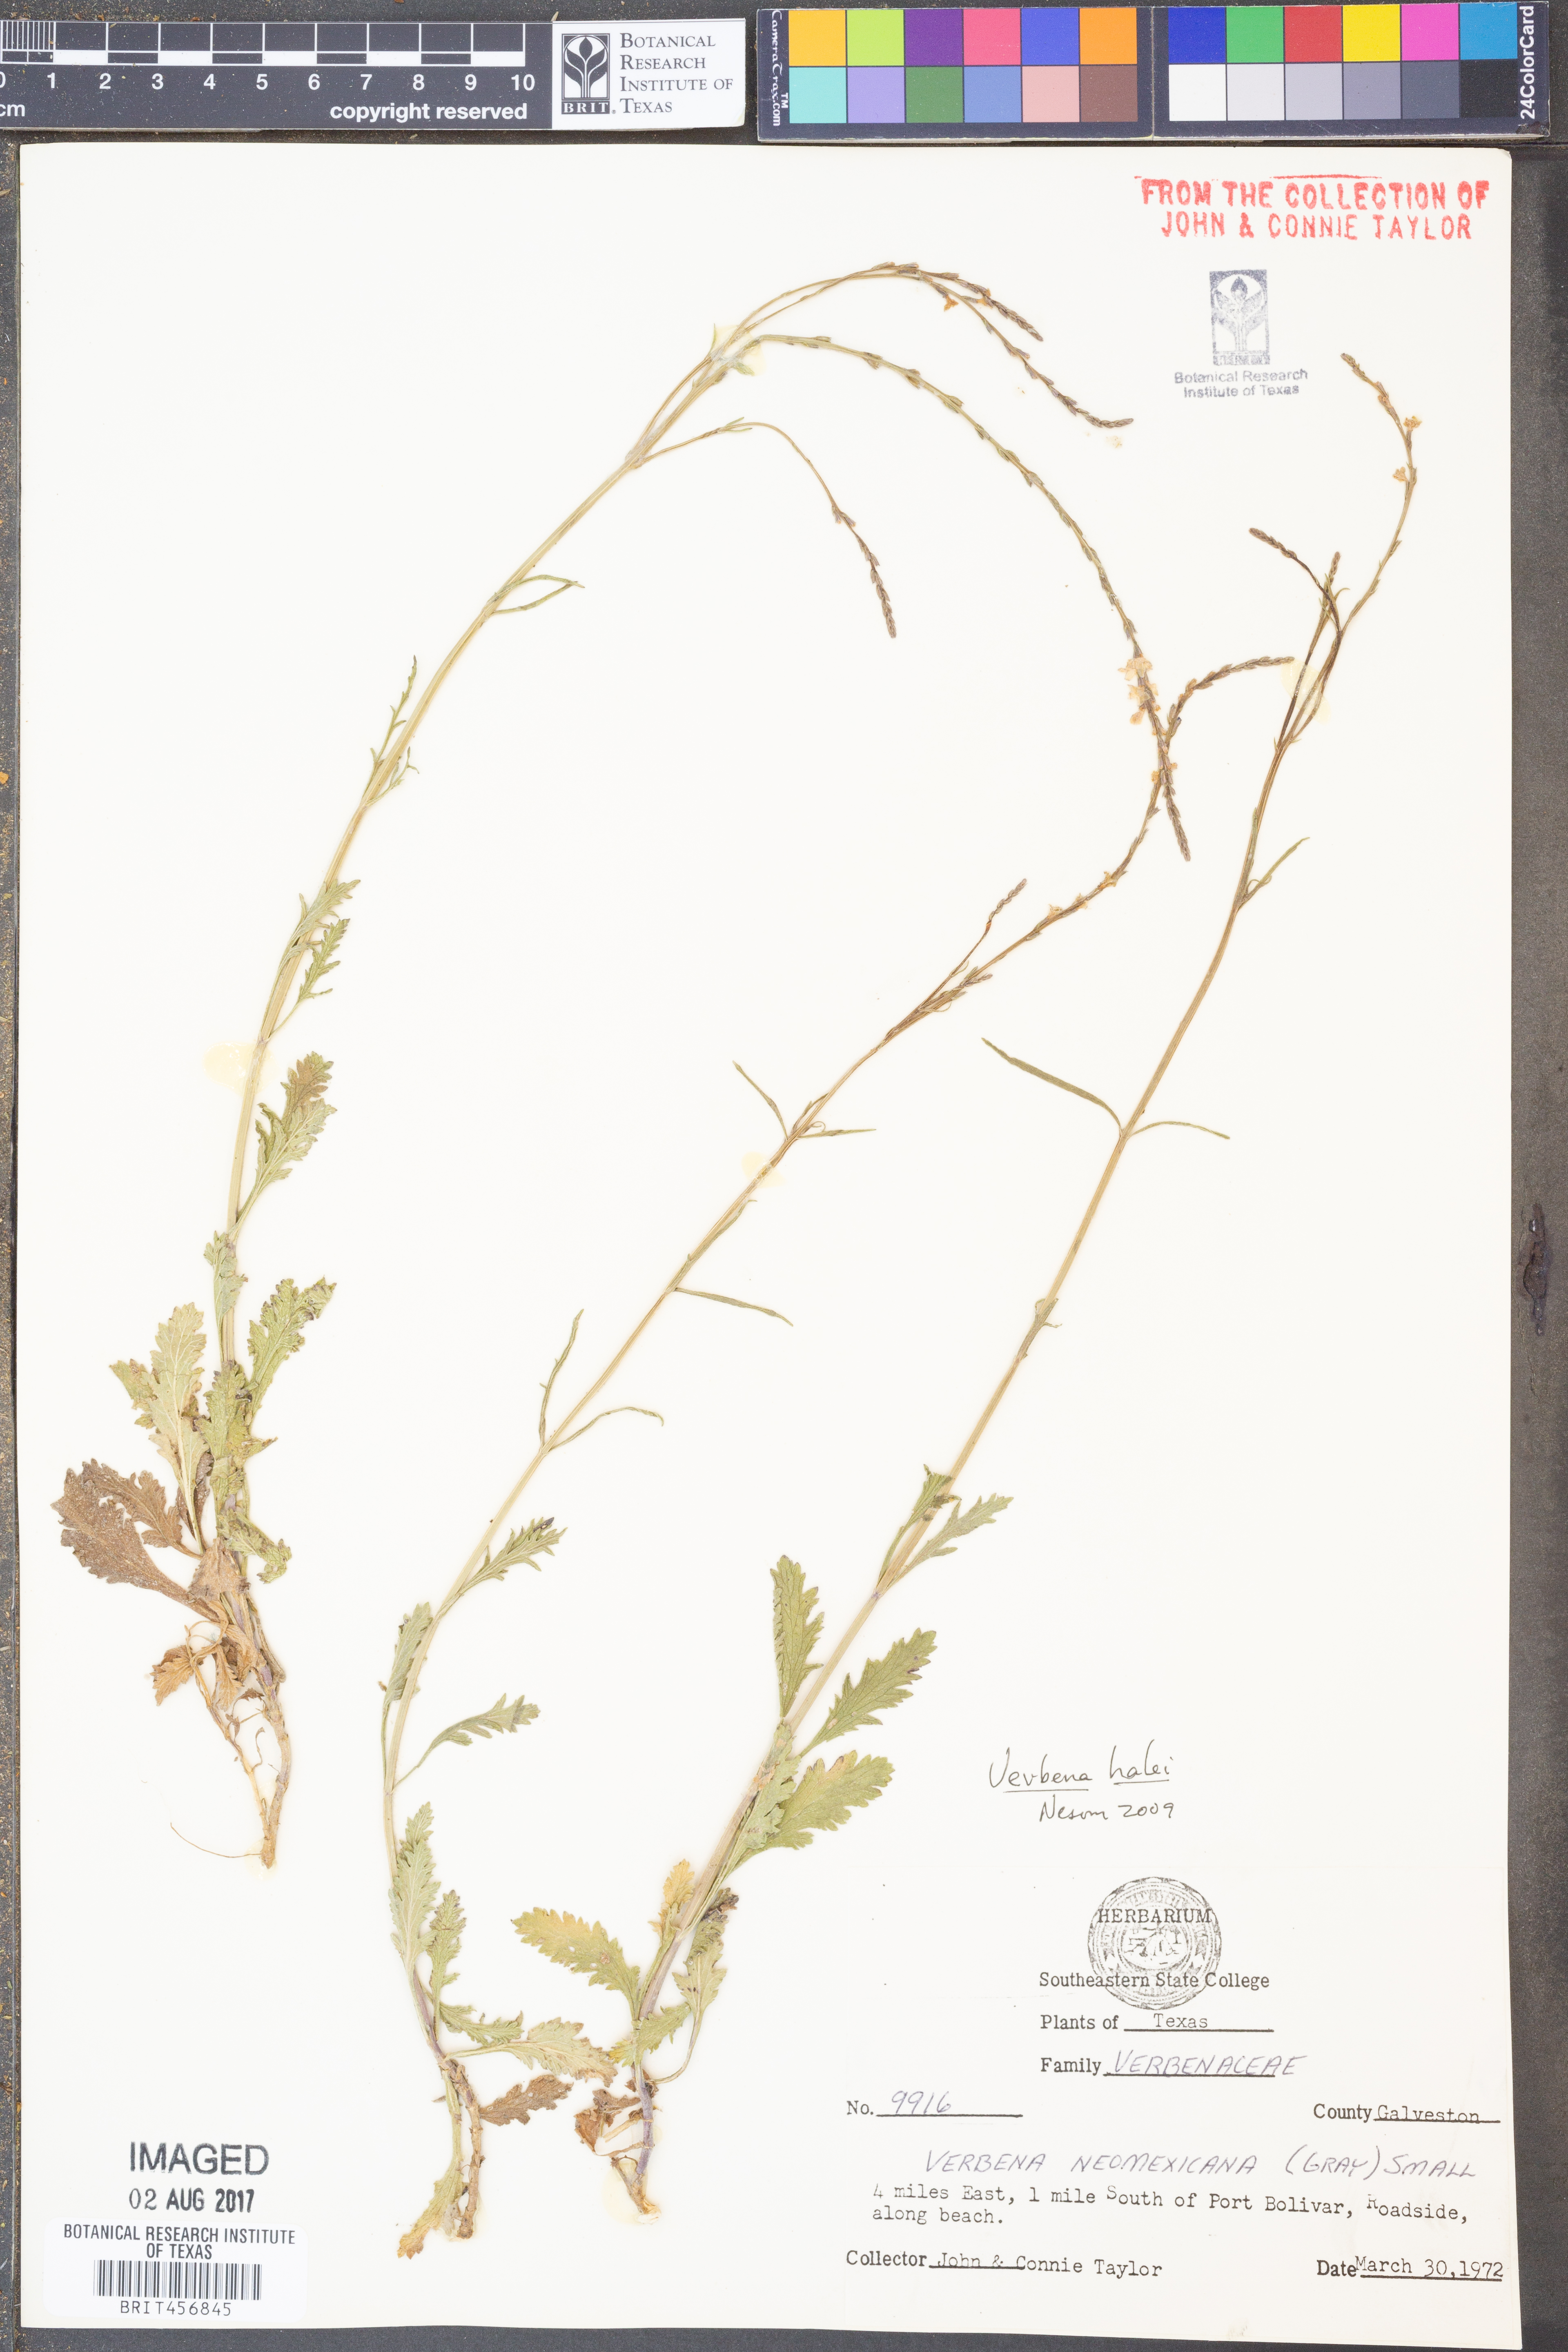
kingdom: Plantae
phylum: Tracheophyta
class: Magnoliopsida
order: Lamiales
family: Verbenaceae
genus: Verbena
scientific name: Verbena neomexicana
